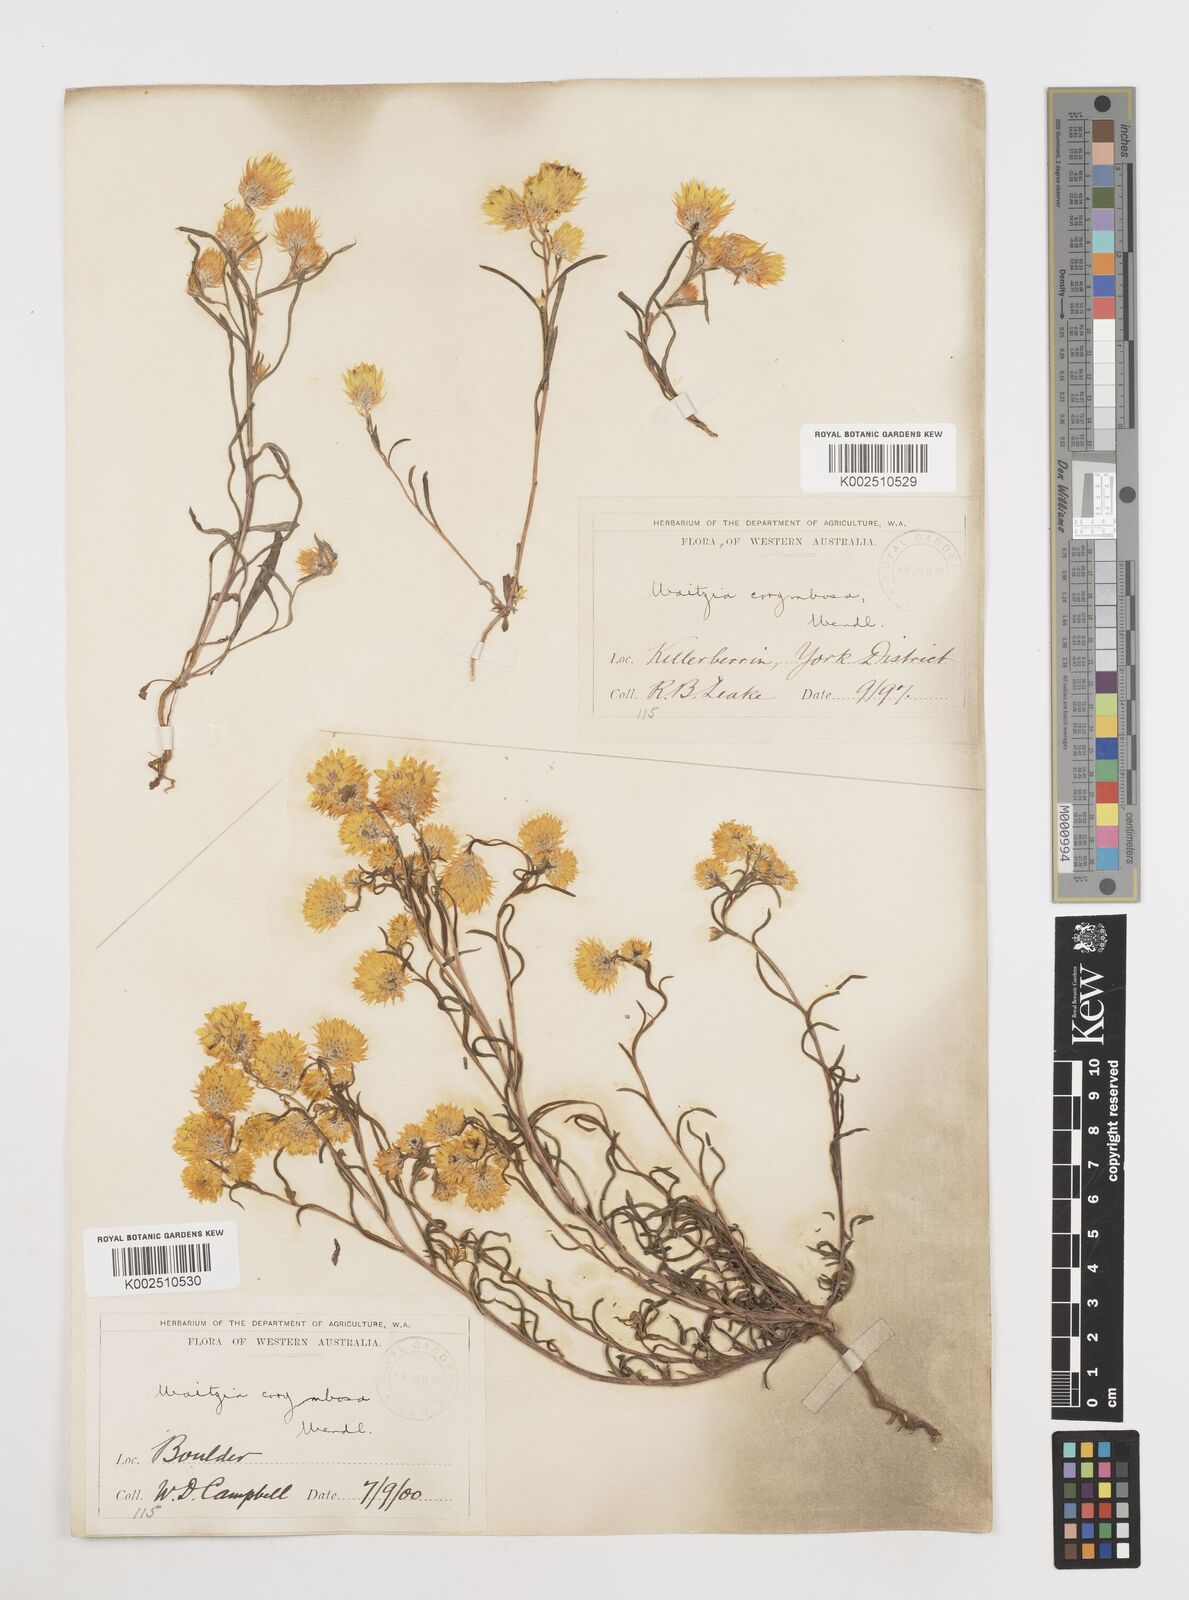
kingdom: Plantae
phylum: Tracheophyta
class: Magnoliopsida
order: Asterales
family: Asteraceae
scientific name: Asteraceae
